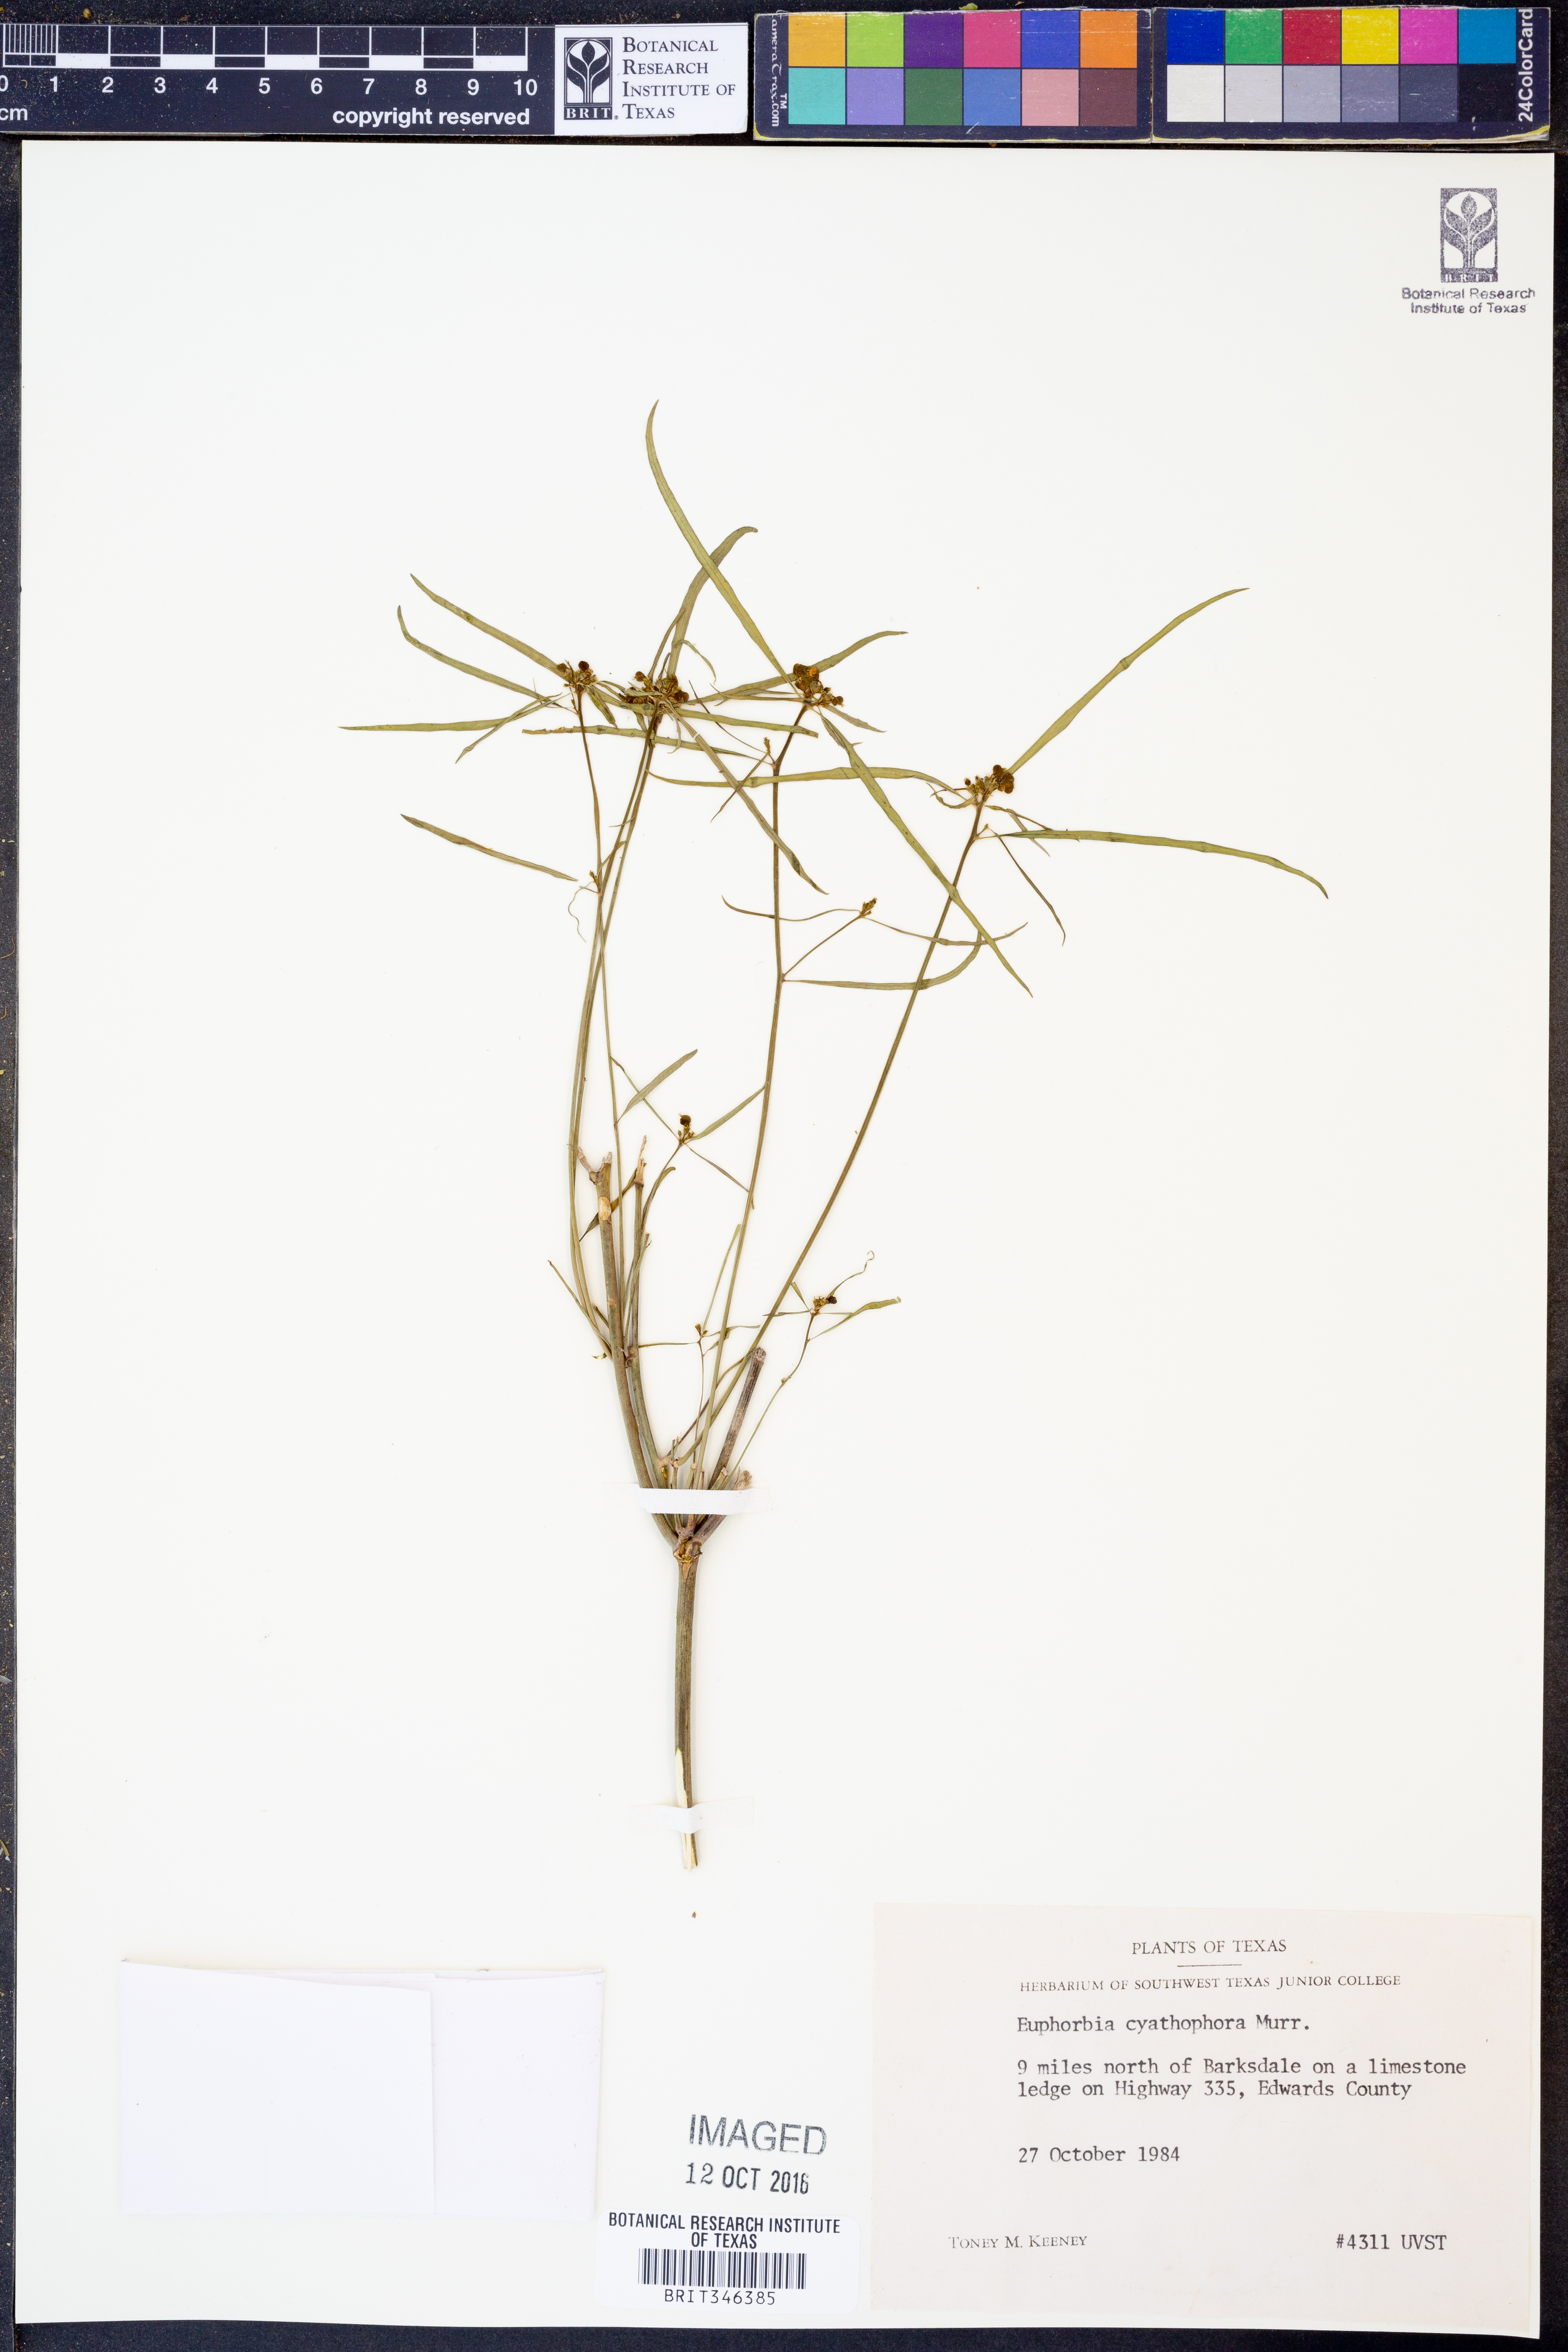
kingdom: Plantae
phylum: Tracheophyta
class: Magnoliopsida
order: Malpighiales
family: Euphorbiaceae
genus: Euphorbia
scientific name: Euphorbia heterophylla
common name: Mexican fireplant
